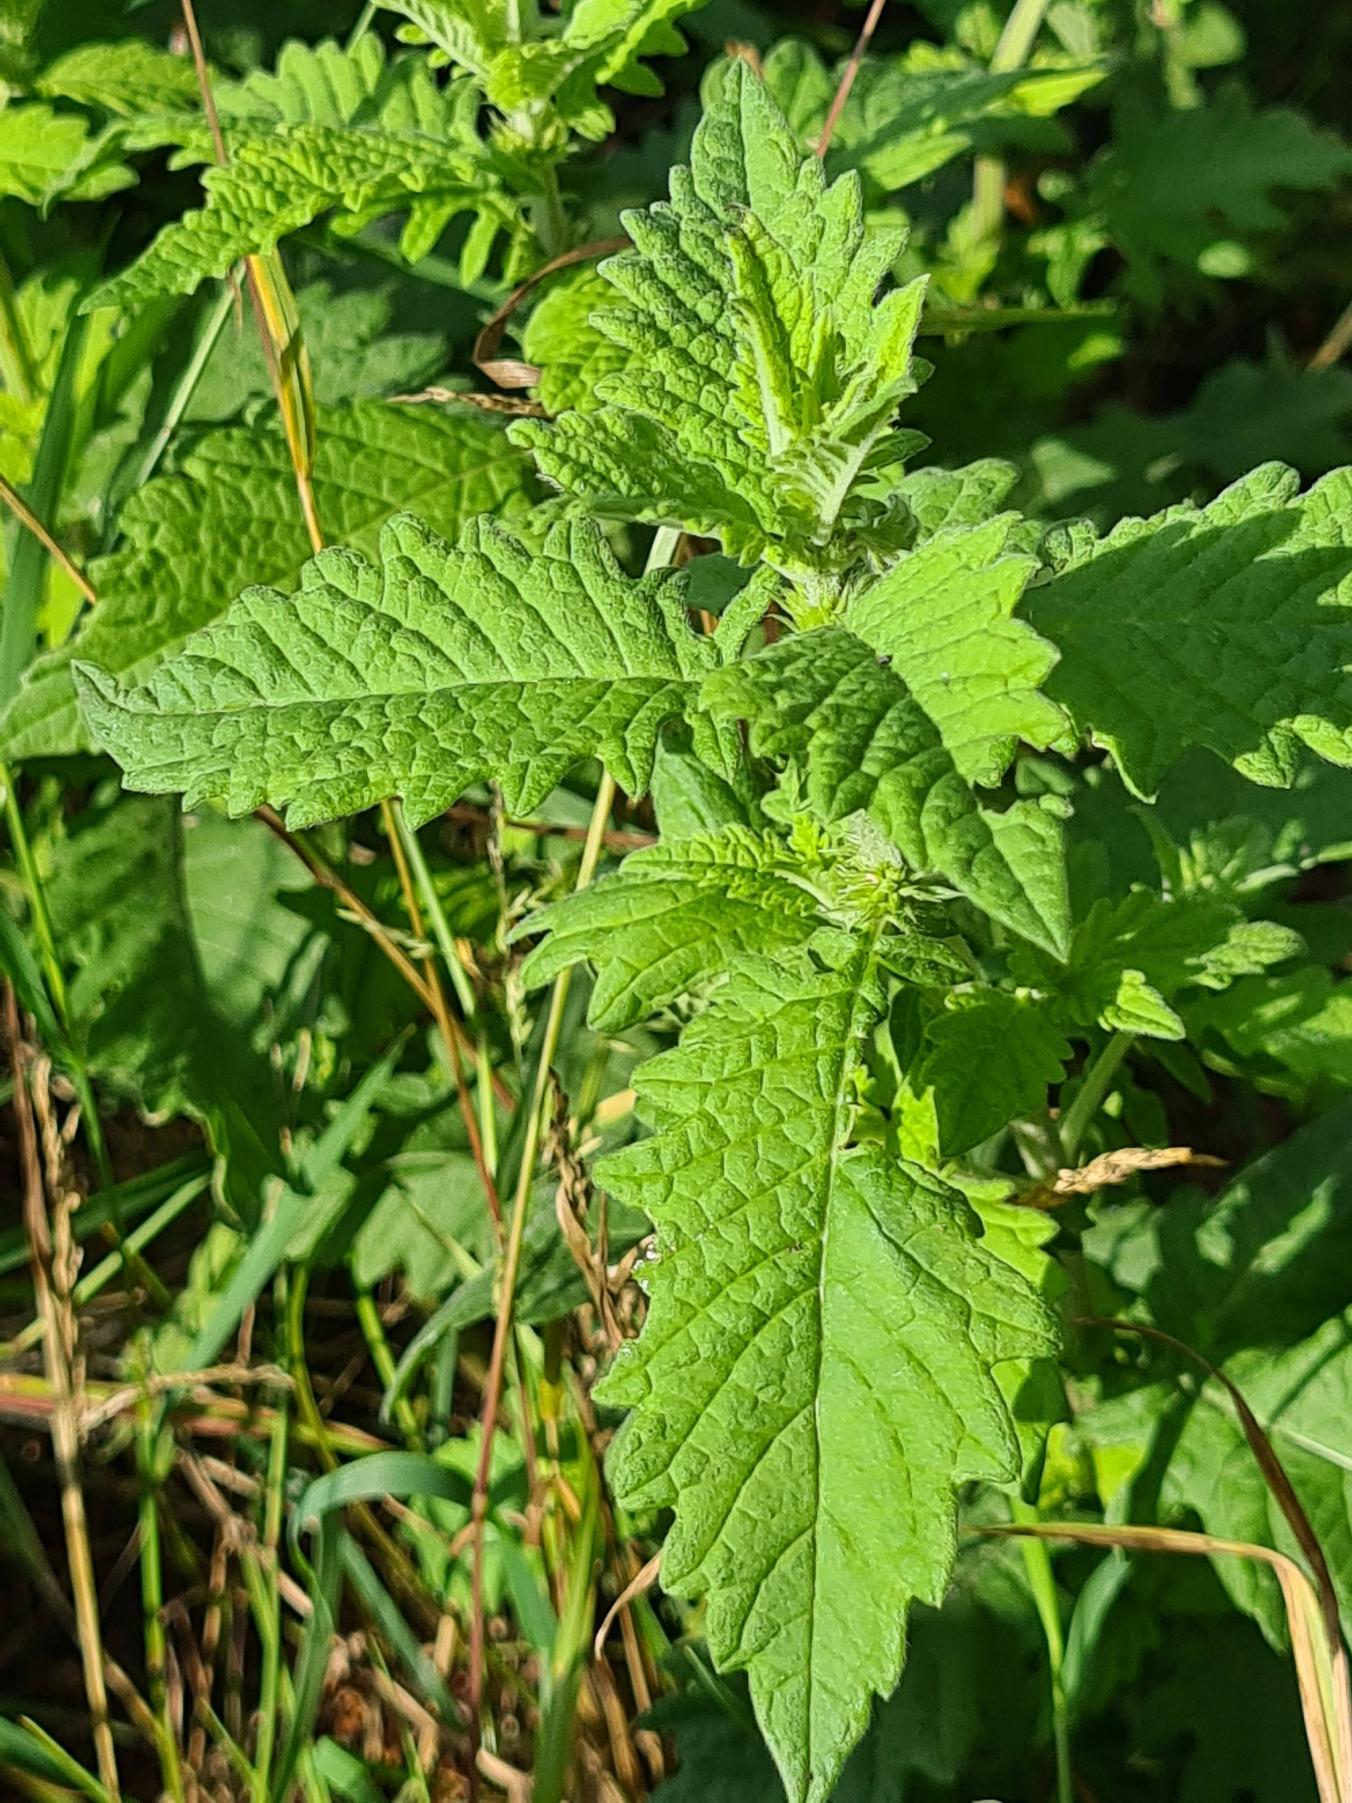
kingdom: Plantae
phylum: Tracheophyta
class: Magnoliopsida
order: Lamiales
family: Lamiaceae
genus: Lycopus
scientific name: Lycopus europaeus
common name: Sværtevæld
